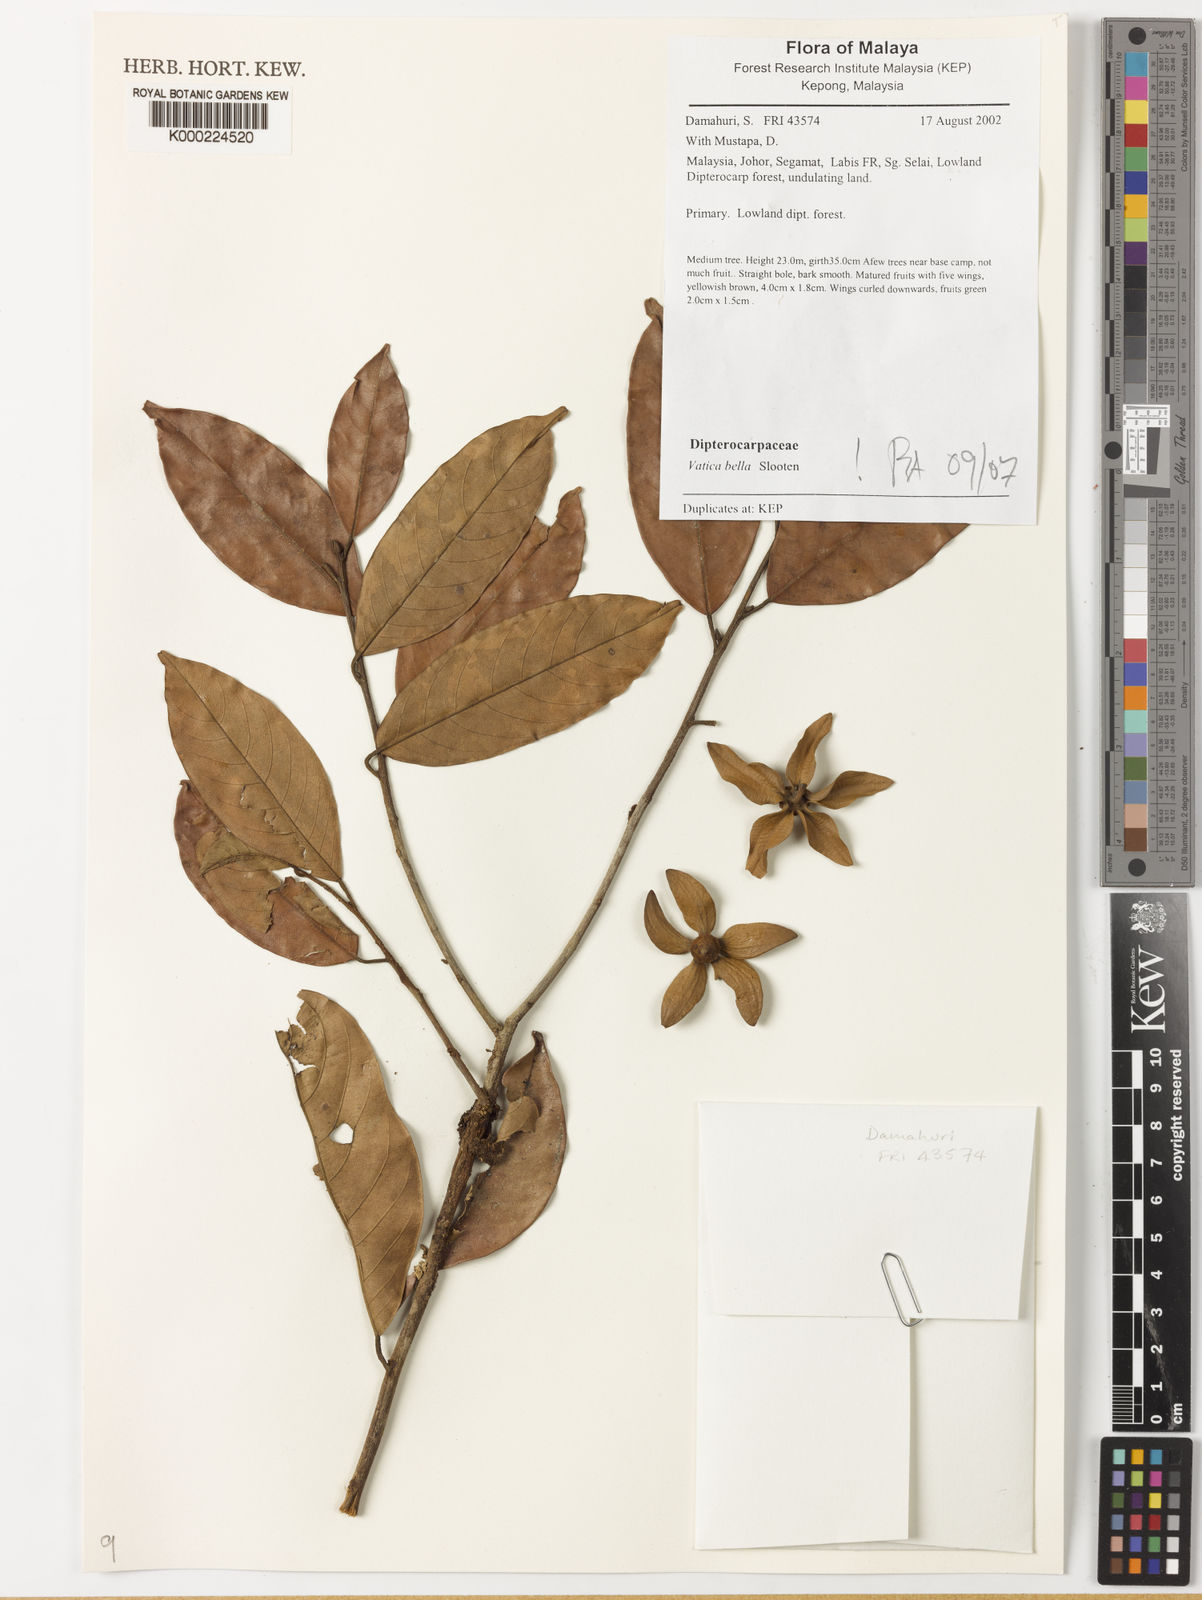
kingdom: Plantae
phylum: Tracheophyta
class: Magnoliopsida
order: Malvales
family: Dipterocarpaceae
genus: Vatica
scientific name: Vatica bella
